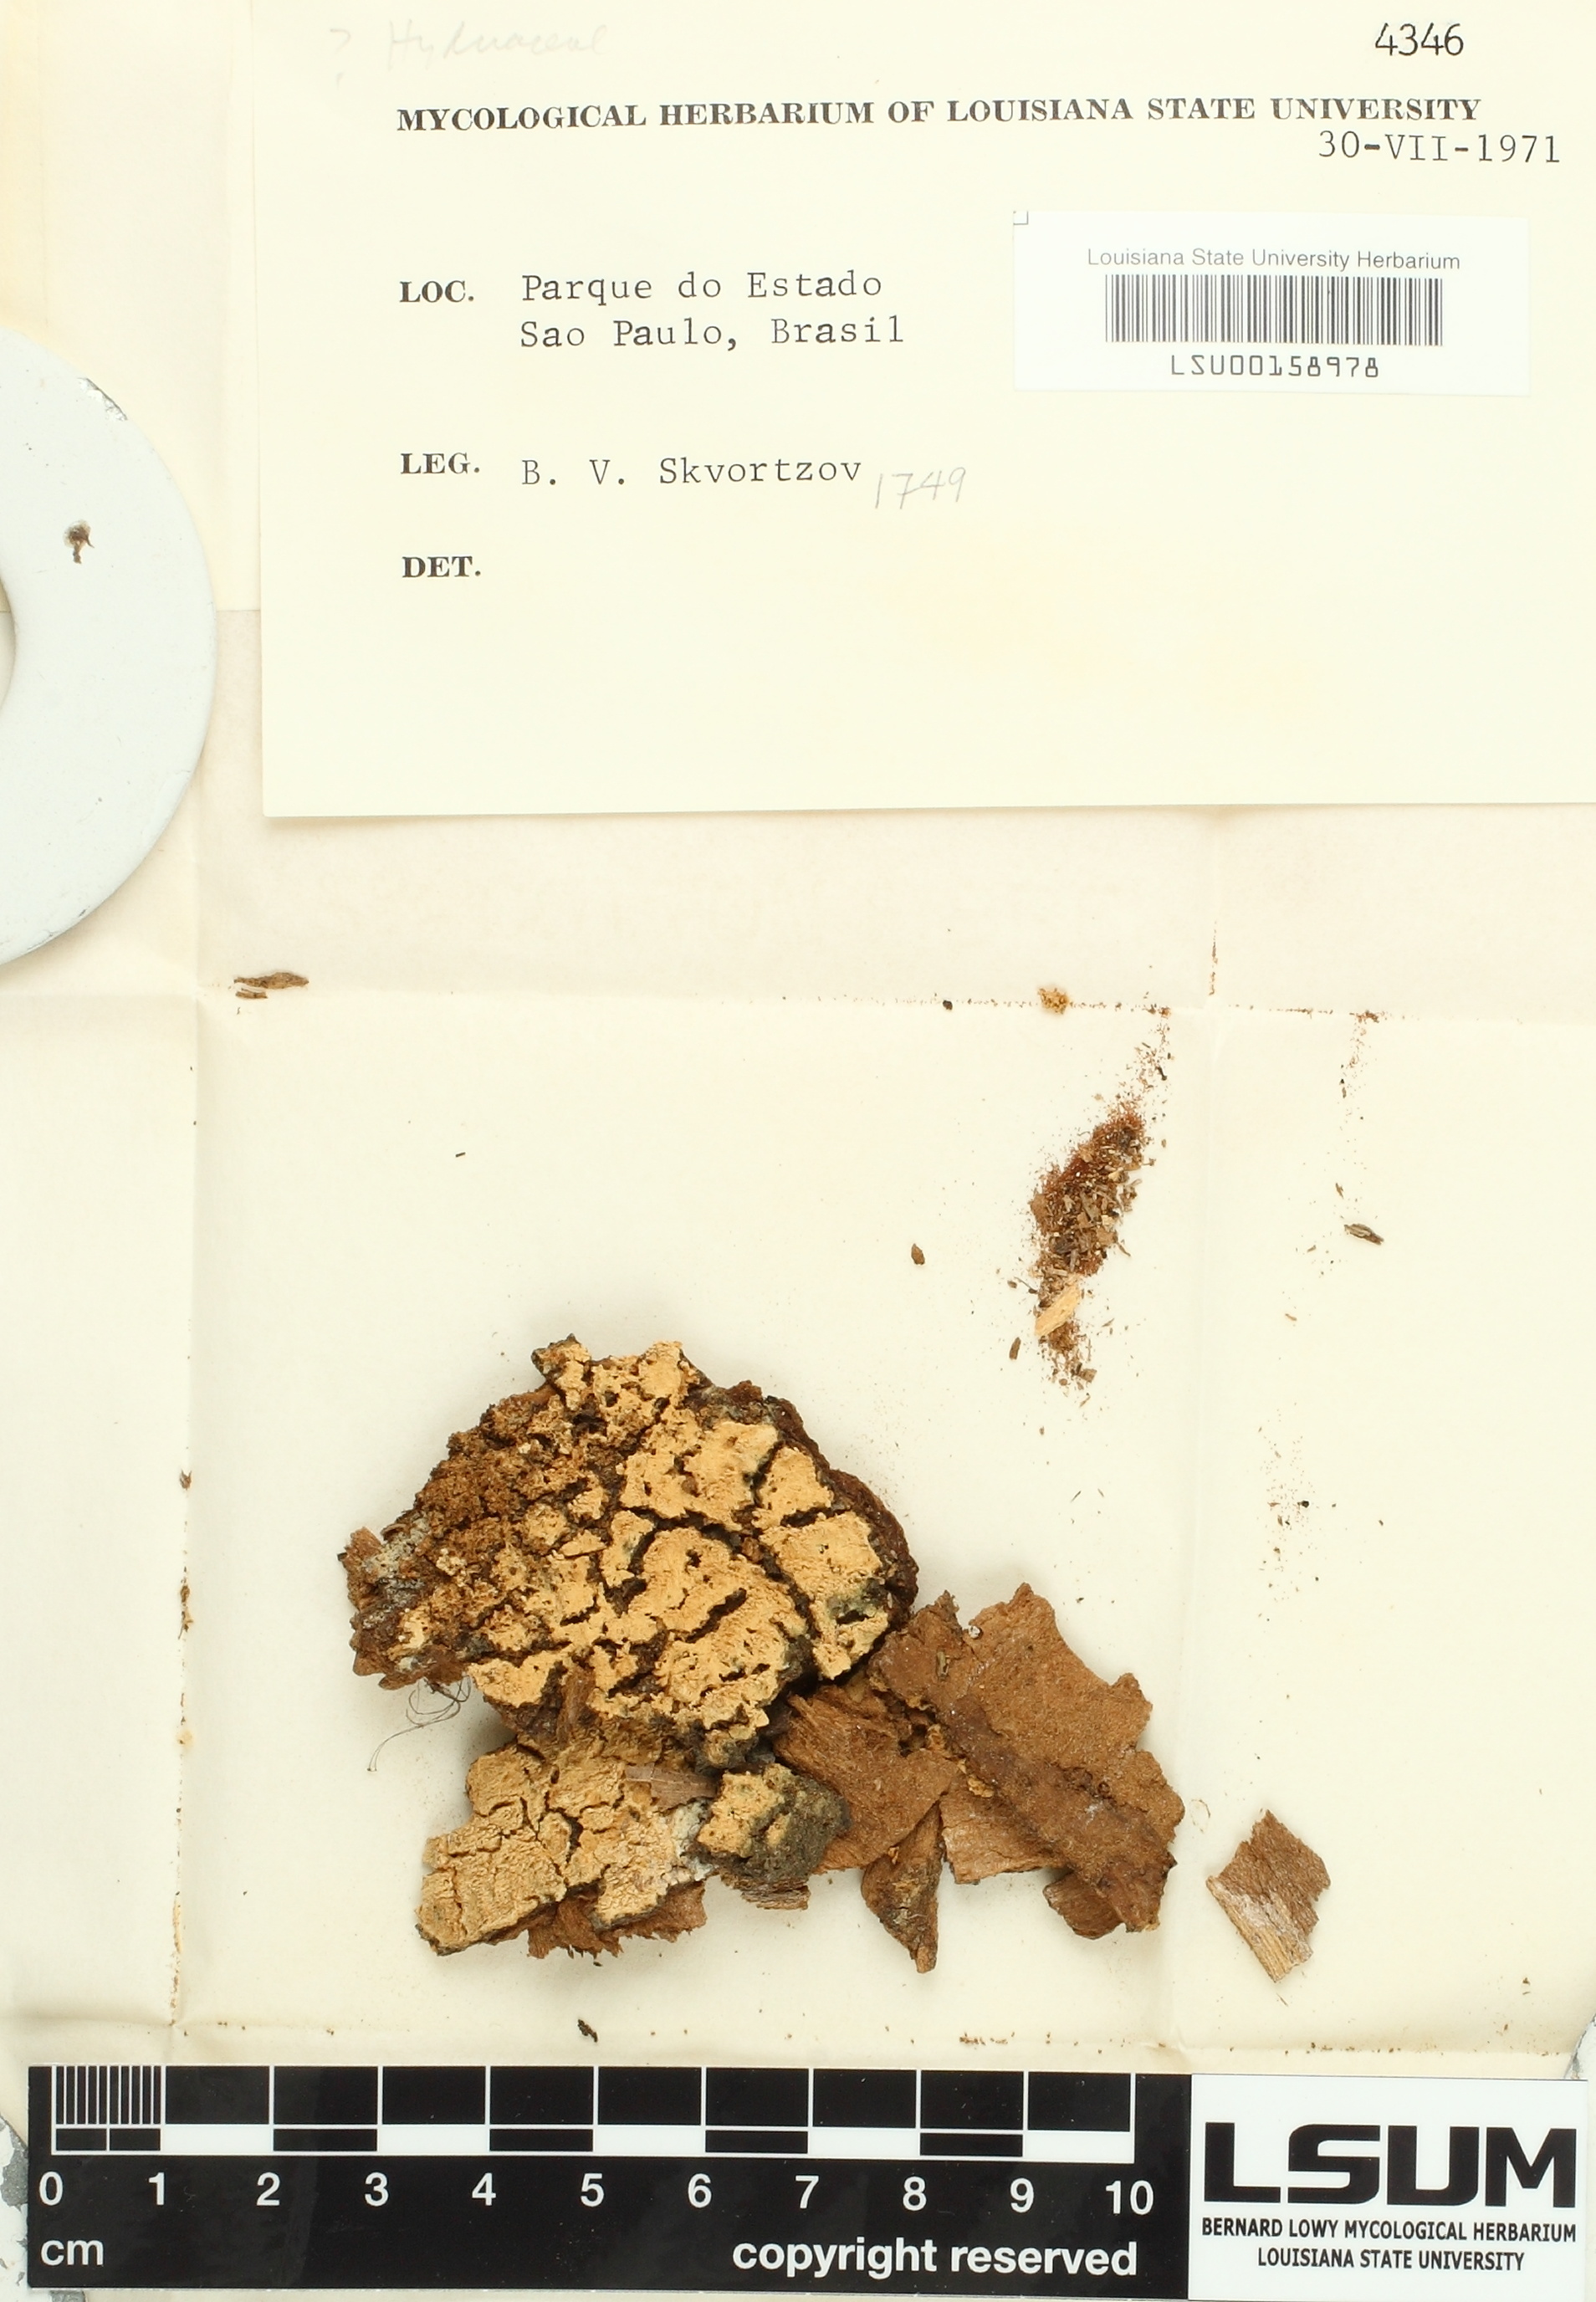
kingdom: Fungi
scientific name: Fungi
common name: Fungi
